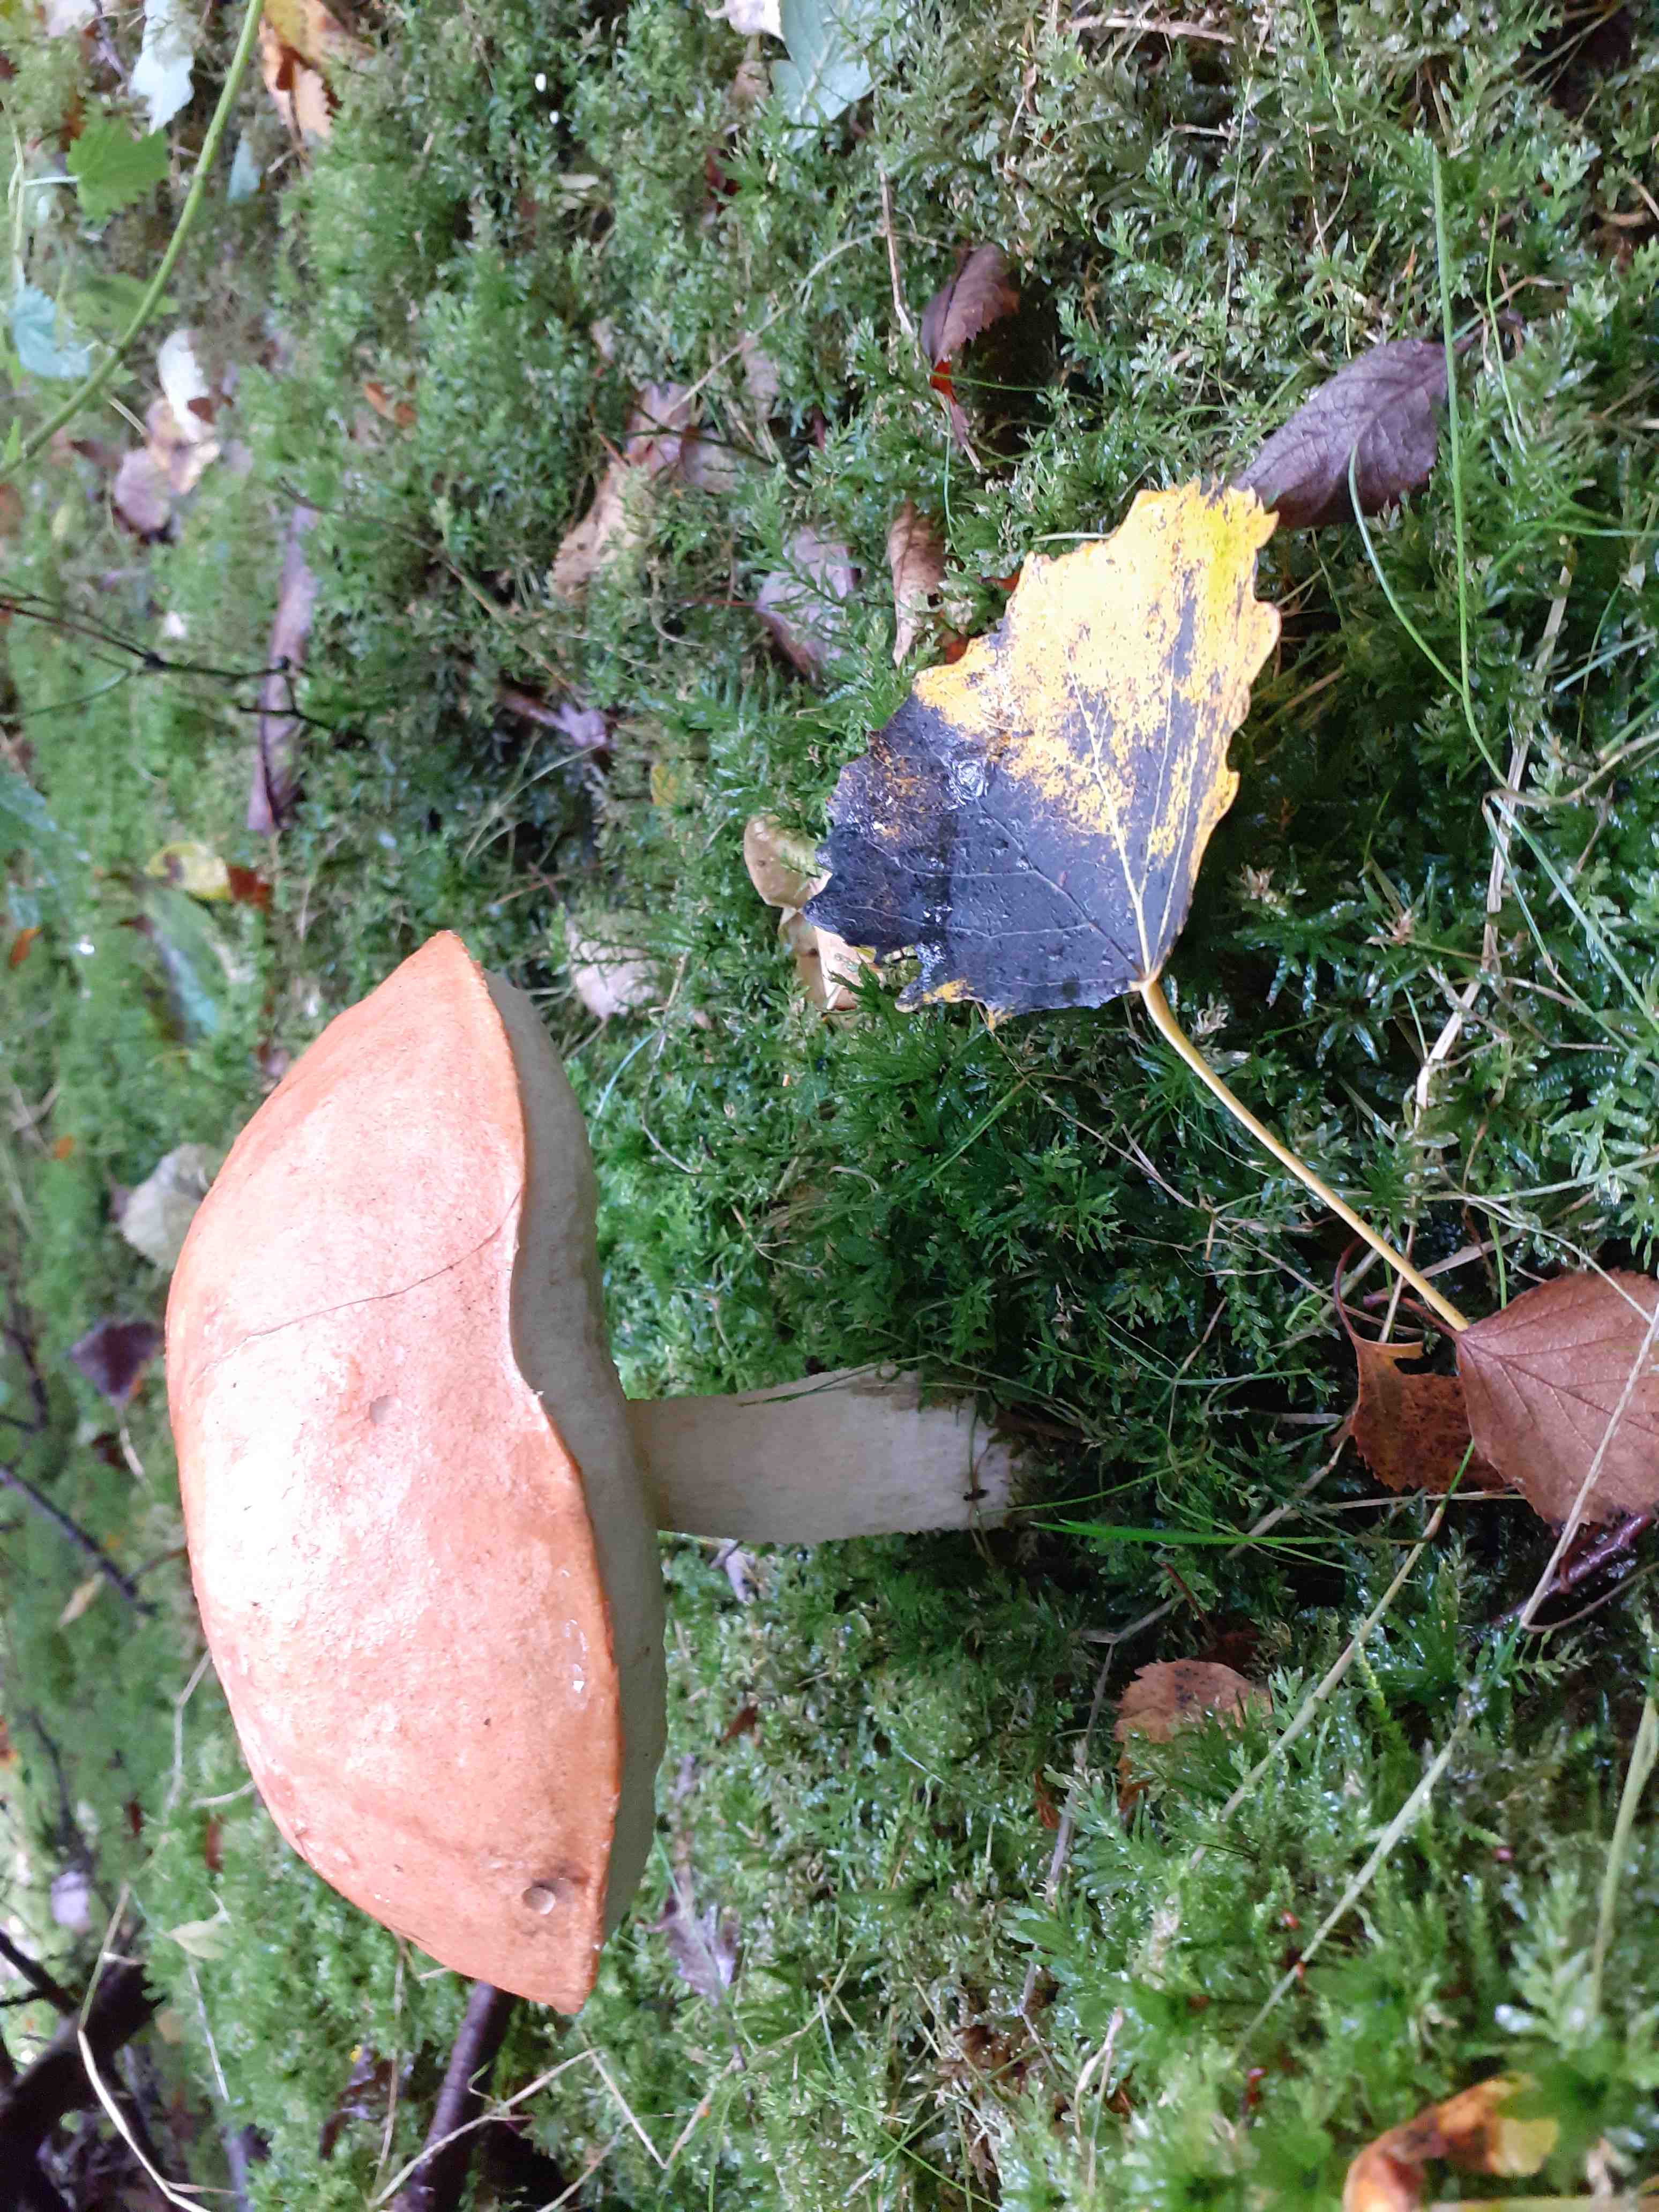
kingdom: Fungi
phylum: Basidiomycota
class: Agaricomycetes
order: Boletales
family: Boletaceae
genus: Leccinum
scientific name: Leccinum albostipitatum
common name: aspe-skælrørhat
